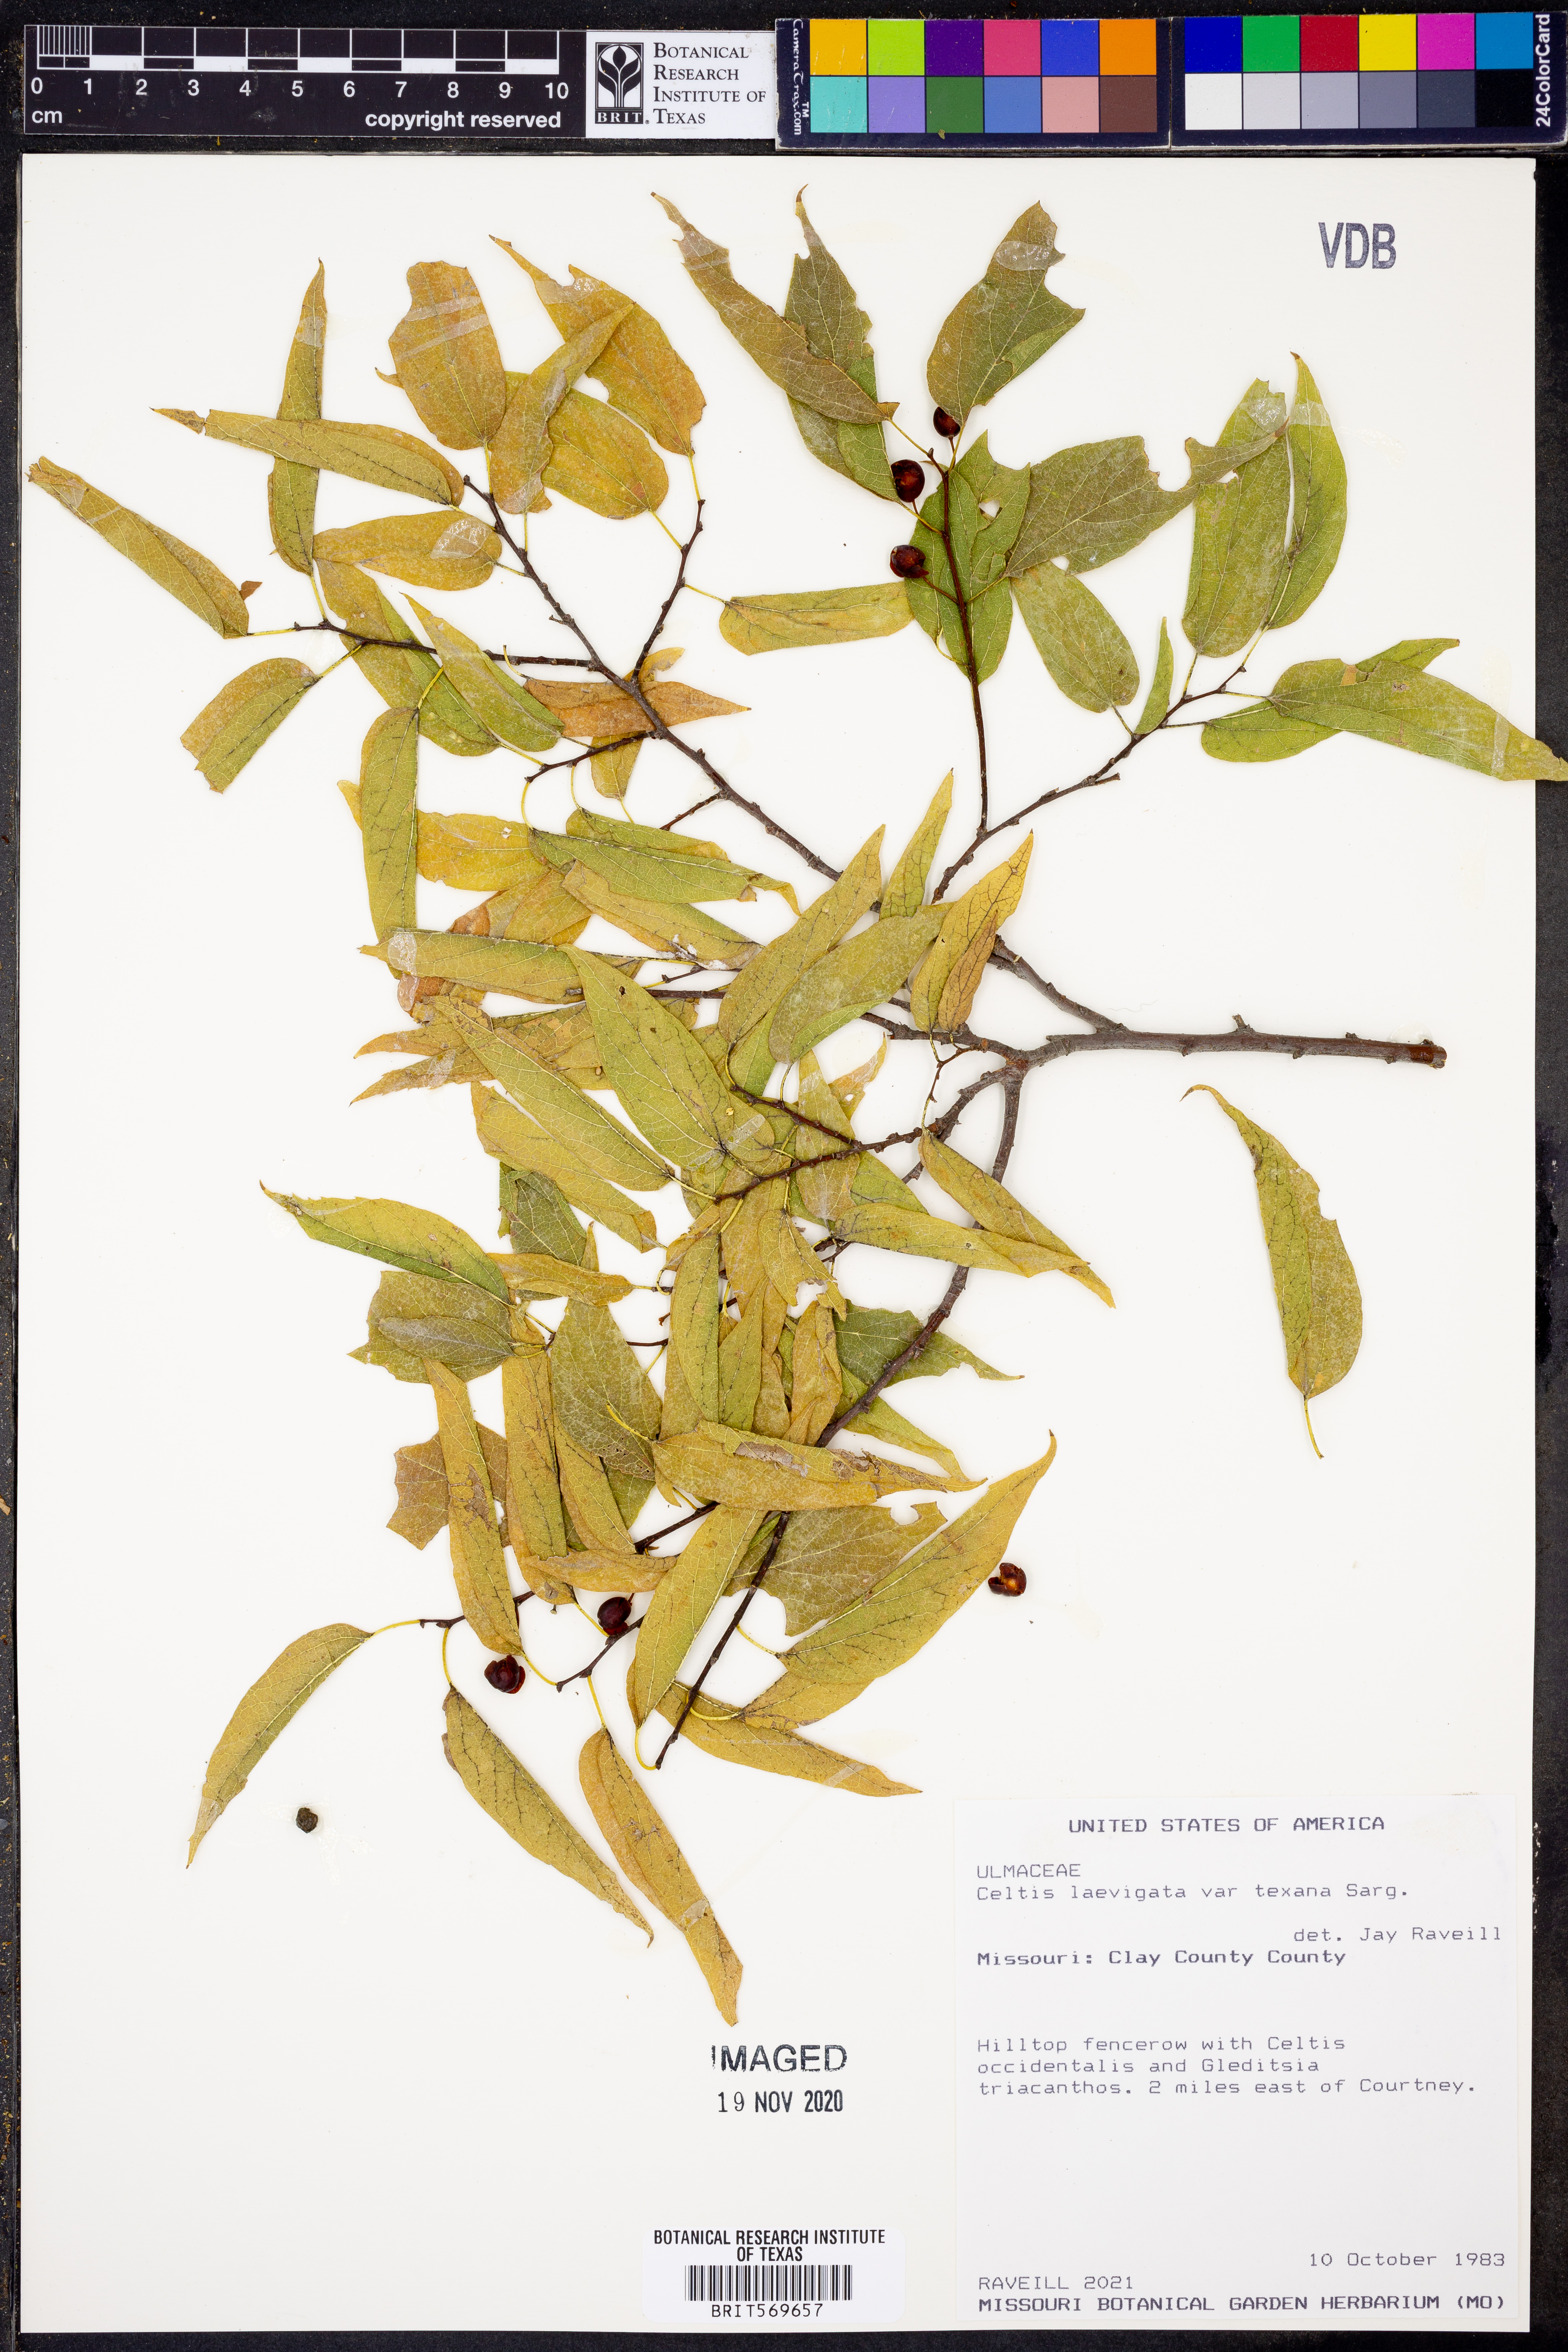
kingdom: Plantae
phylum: Tracheophyta
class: Magnoliopsida
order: Rosales
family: Cannabaceae
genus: Celtis
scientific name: Celtis laevigata
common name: Sugarberry
